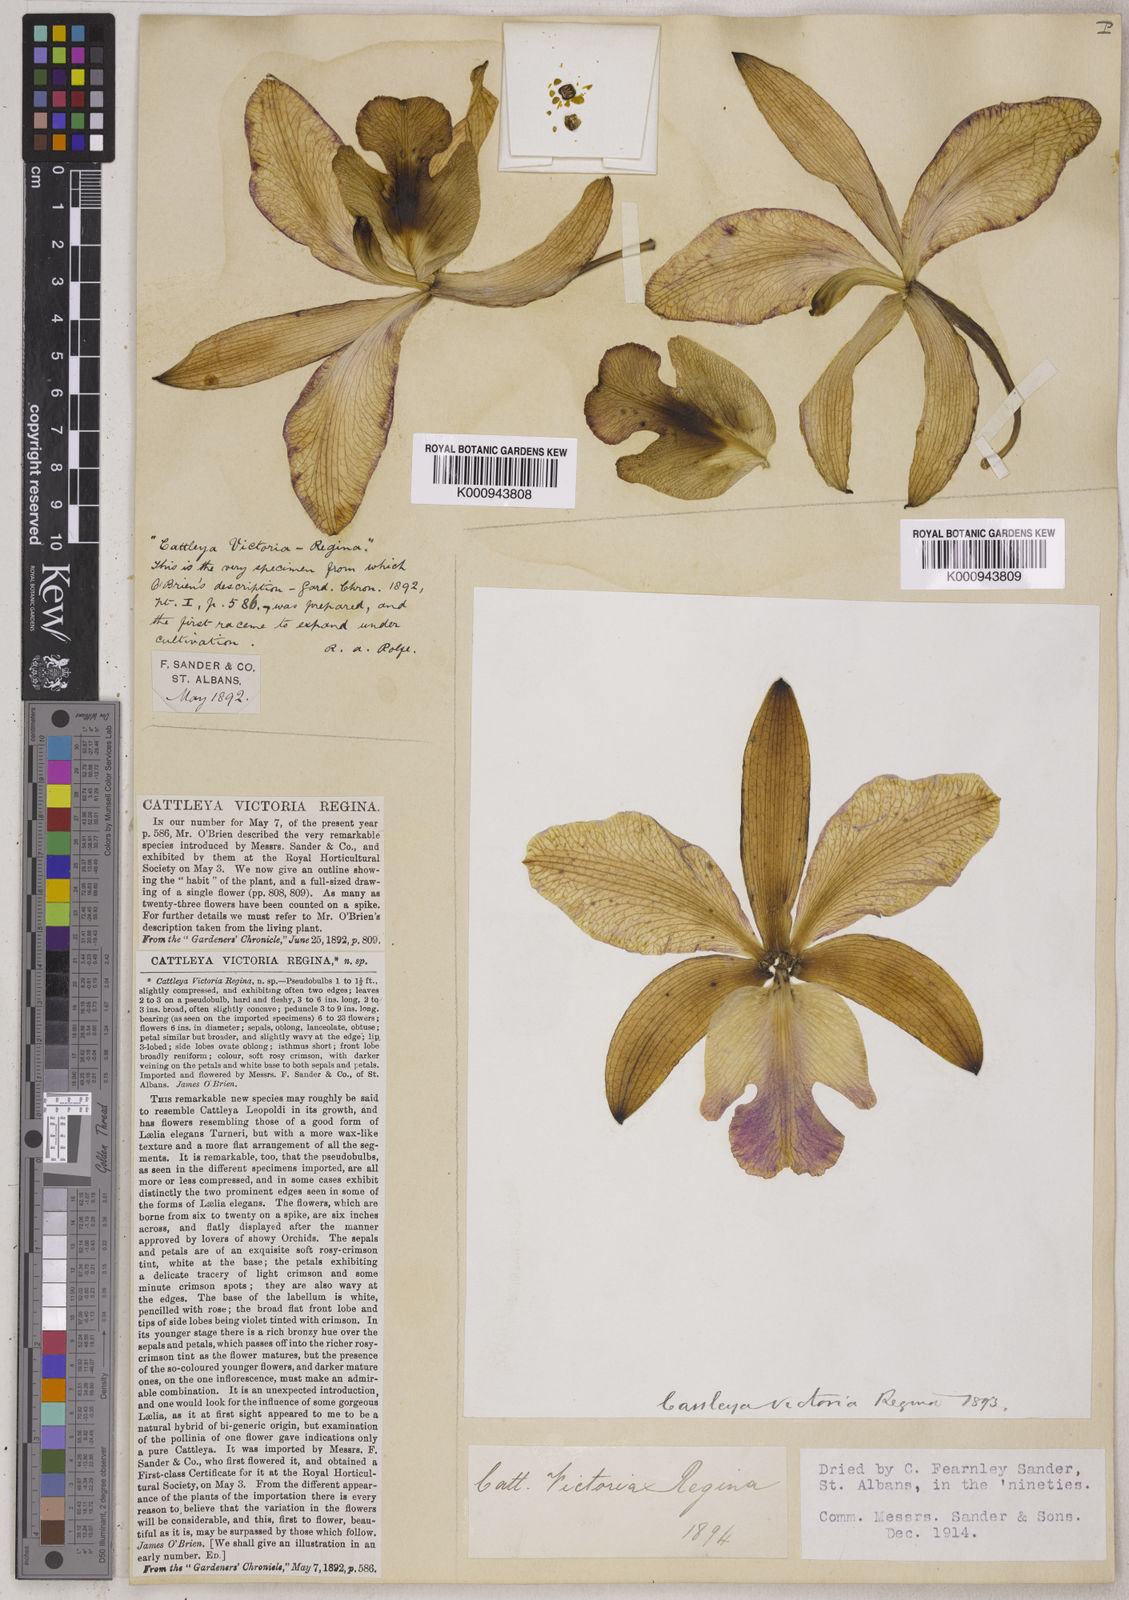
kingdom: Plantae
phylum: Tracheophyta
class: Liliopsida
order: Asparagales
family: Orchidaceae
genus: Cattleya
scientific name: Cattleya victoria-regina
